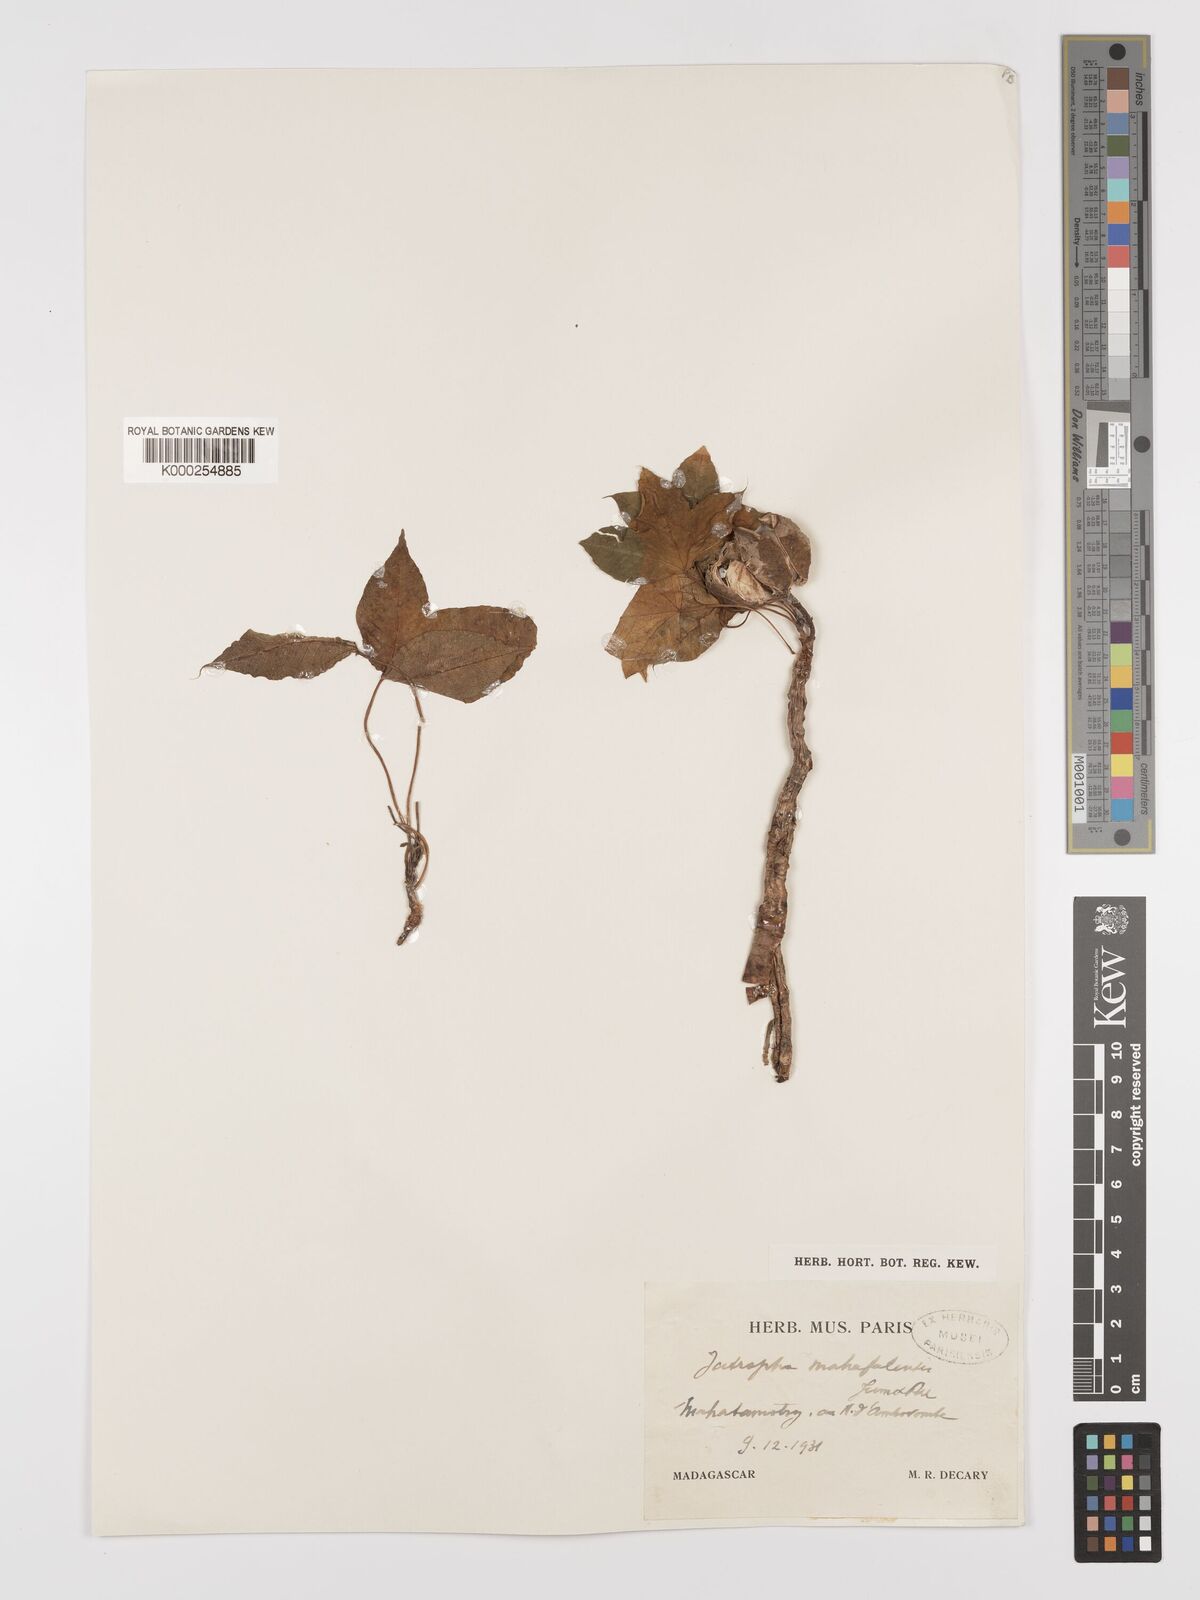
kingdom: Plantae
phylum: Tracheophyta
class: Magnoliopsida
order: Malpighiales
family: Euphorbiaceae
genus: Jatropha
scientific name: Jatropha mahafalensis
